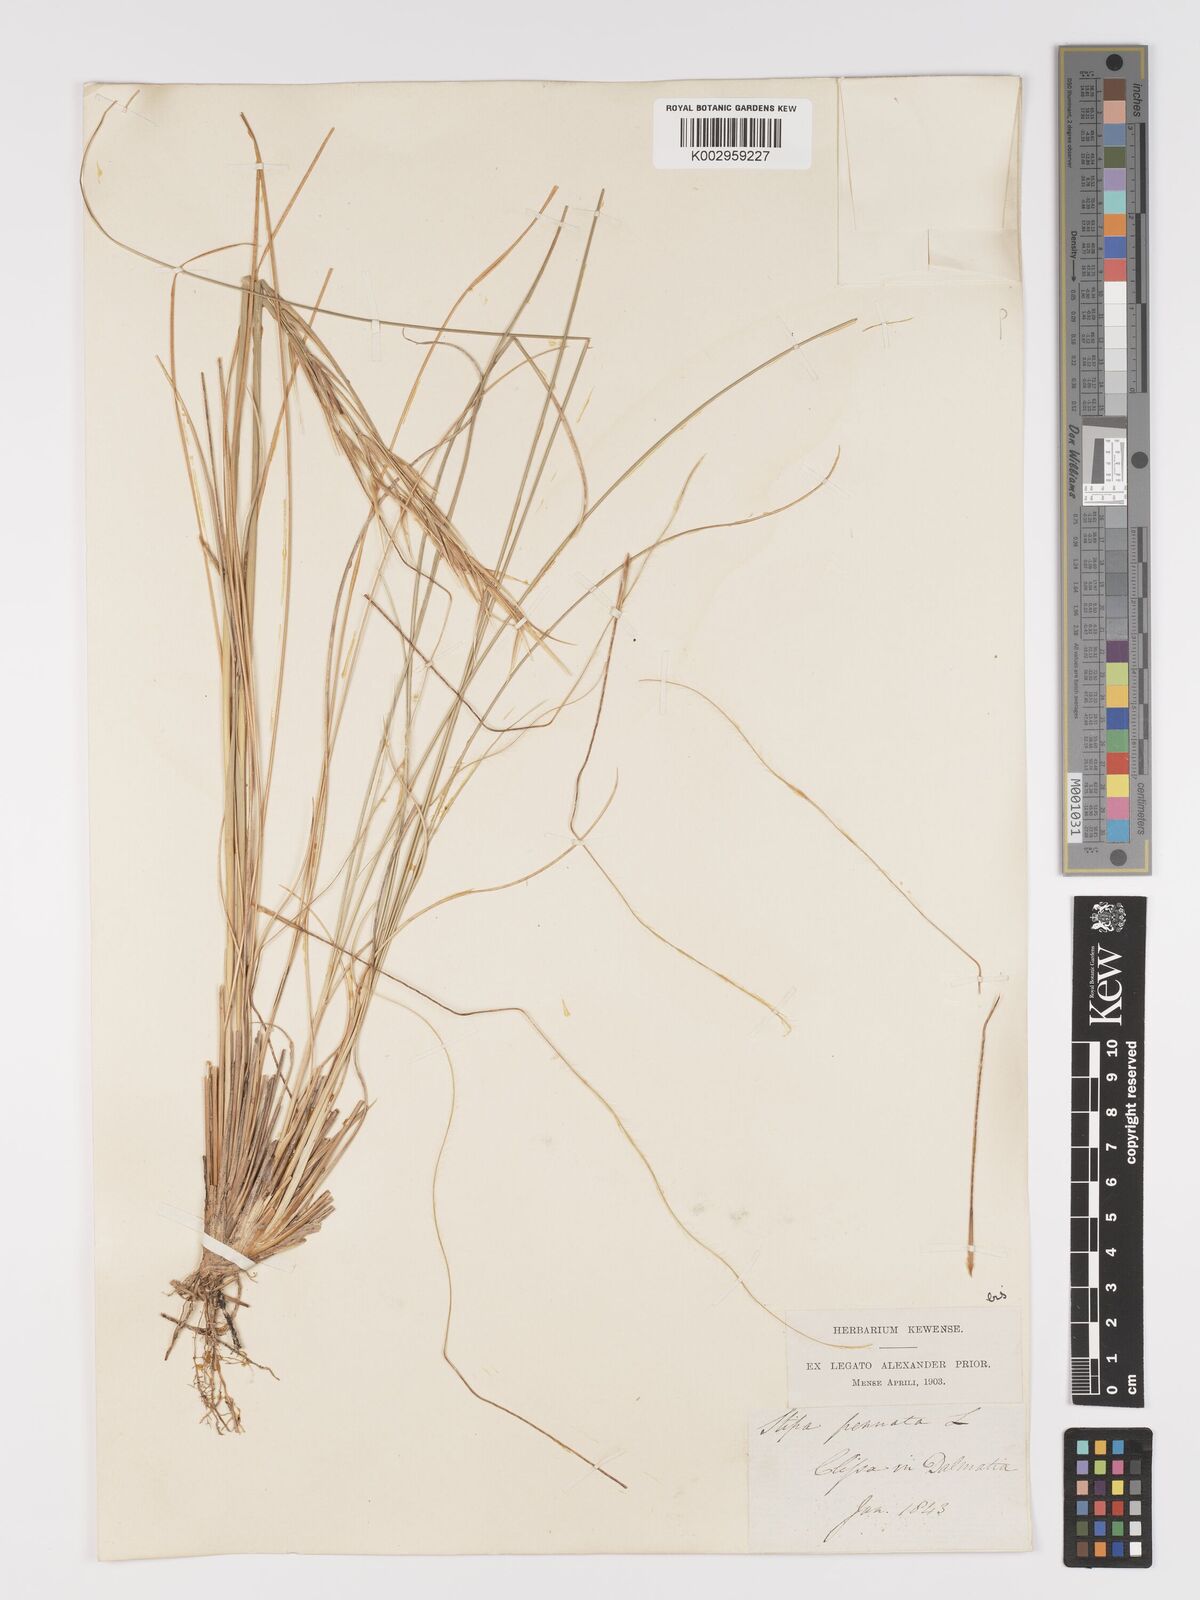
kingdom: Plantae
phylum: Tracheophyta
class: Liliopsida
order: Poales
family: Poaceae
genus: Stipa
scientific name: Stipa pennata
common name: European feather grass
